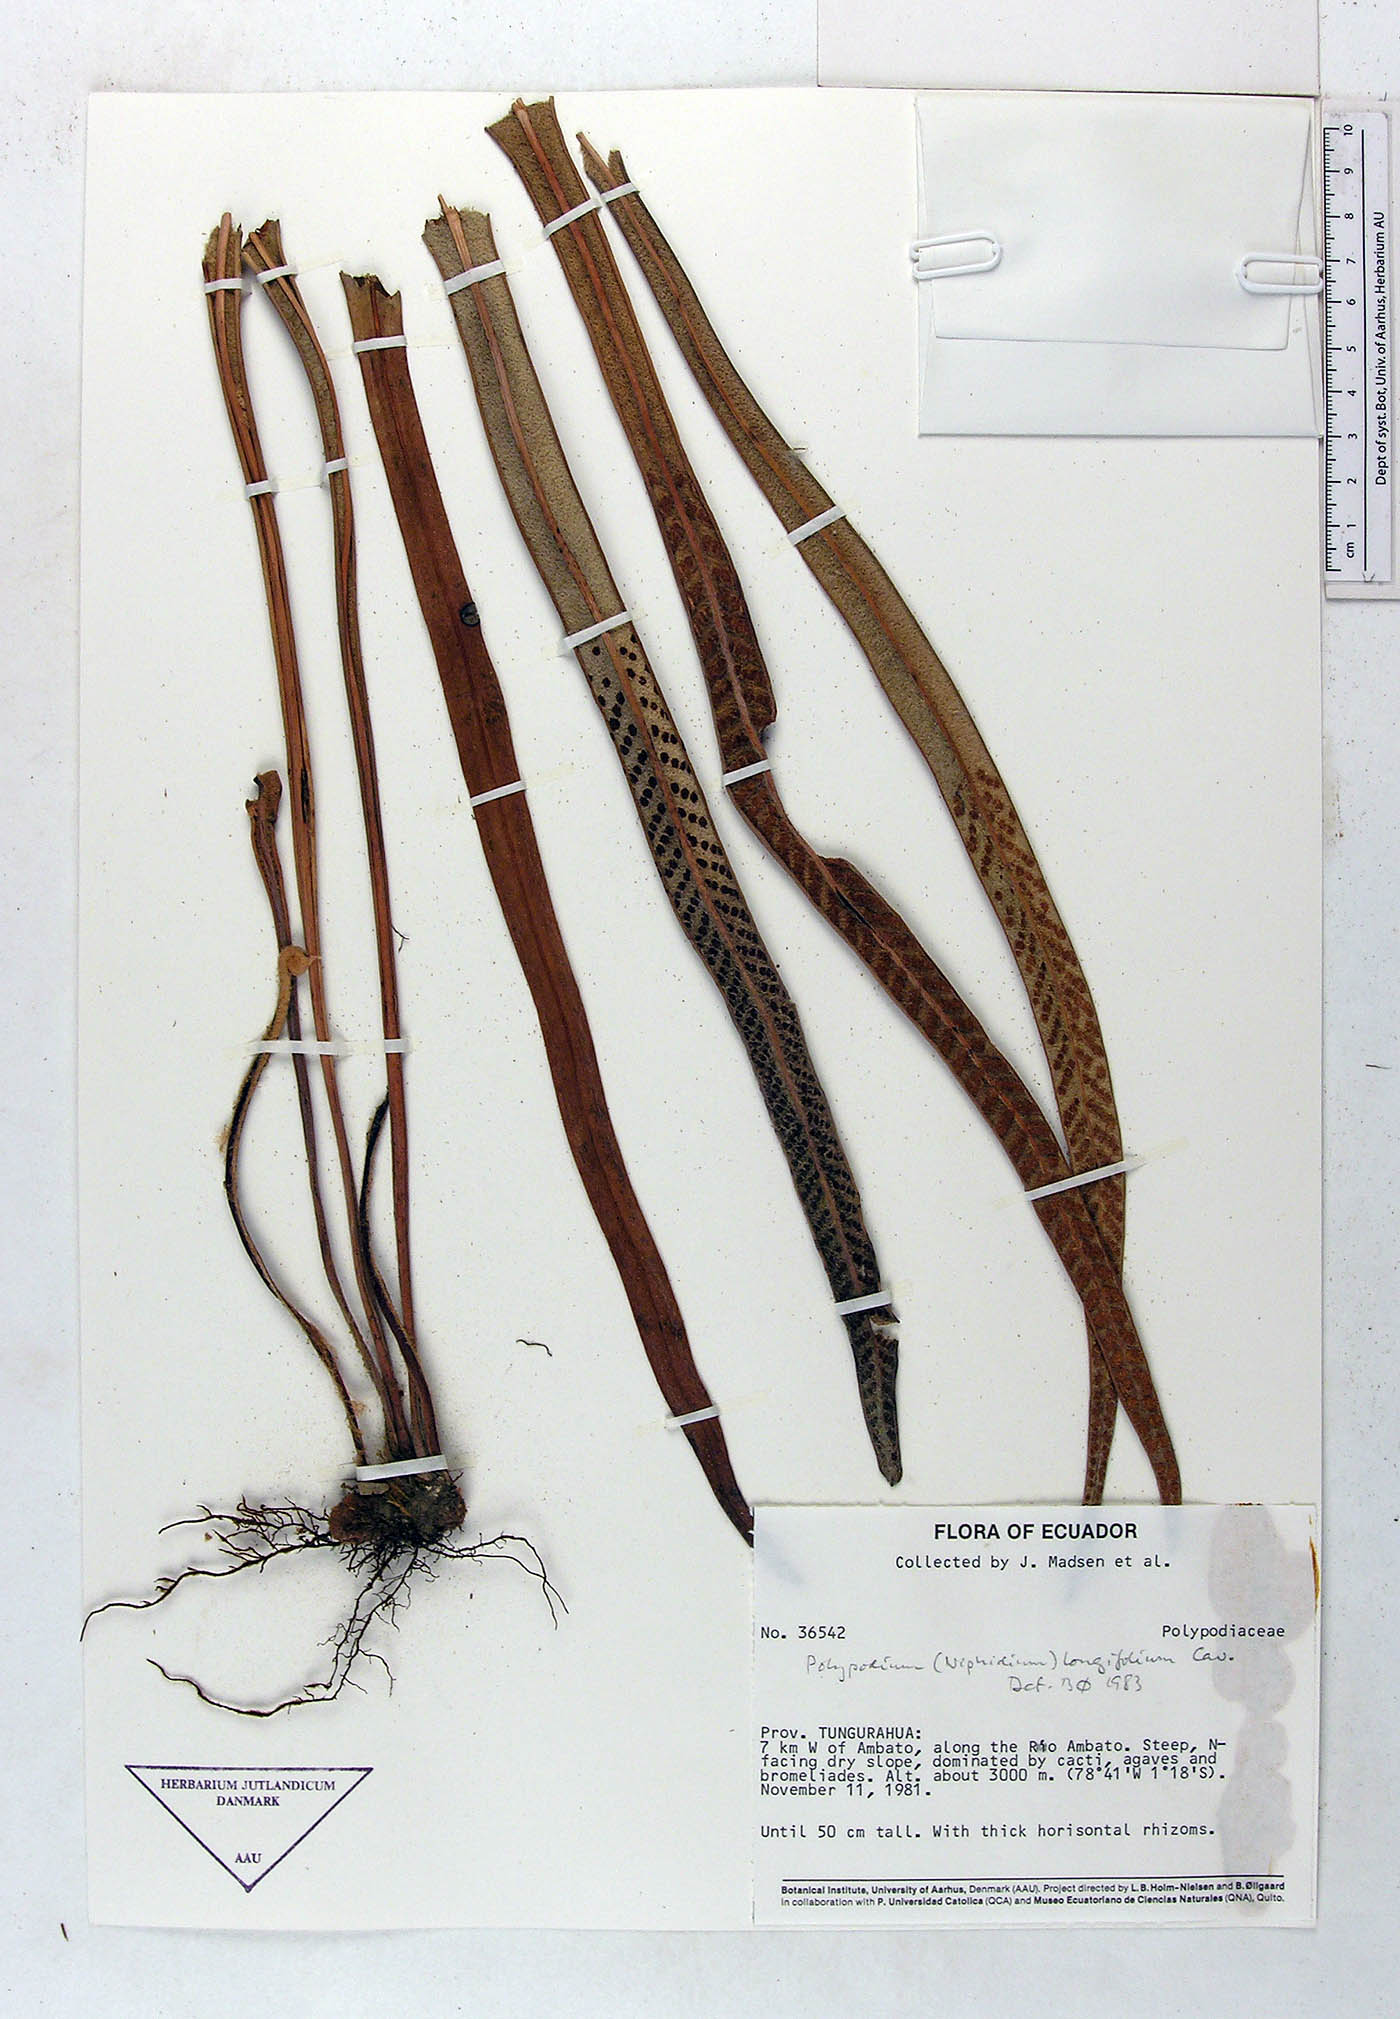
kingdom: Plantae
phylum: Tracheophyta
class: Polypodiopsida
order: Polypodiales
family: Polypodiaceae
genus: Niphidium
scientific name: Niphidium longifolium
